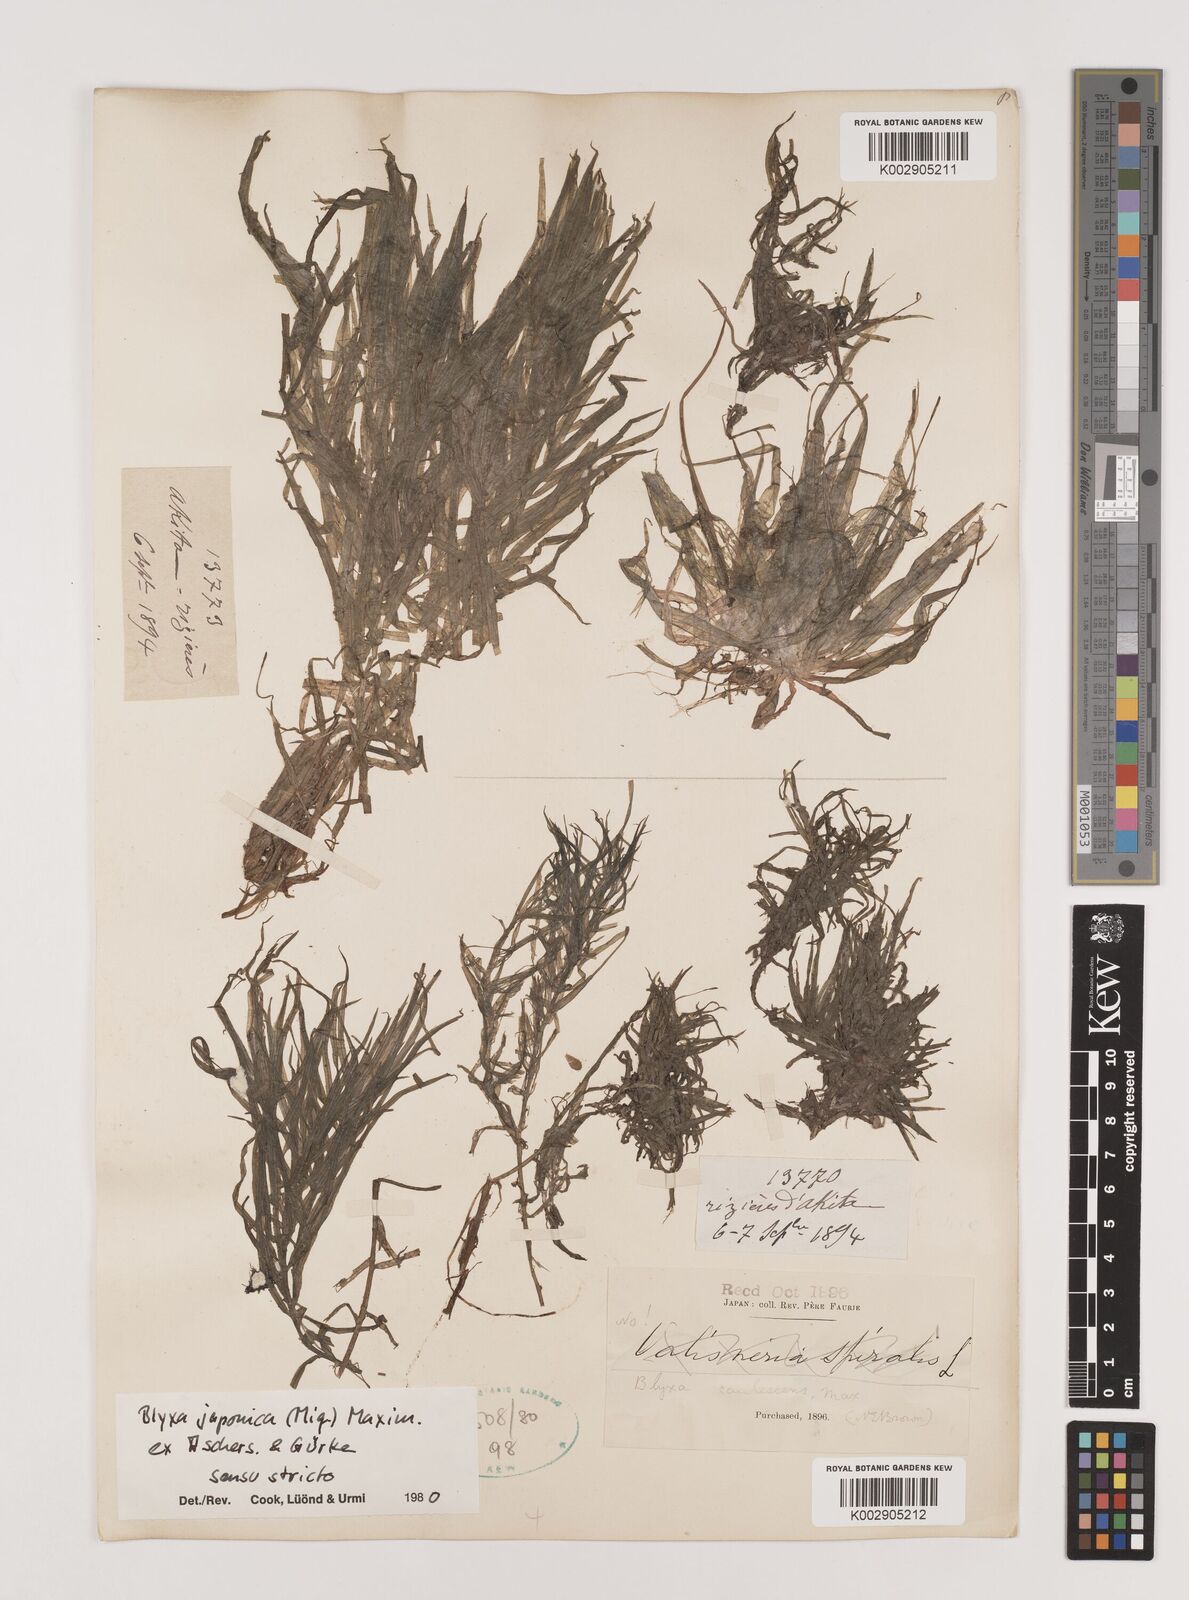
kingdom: Plantae
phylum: Tracheophyta
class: Liliopsida
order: Alismatales
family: Hydrocharitaceae
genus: Blyxa
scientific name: Blyxa japonica
